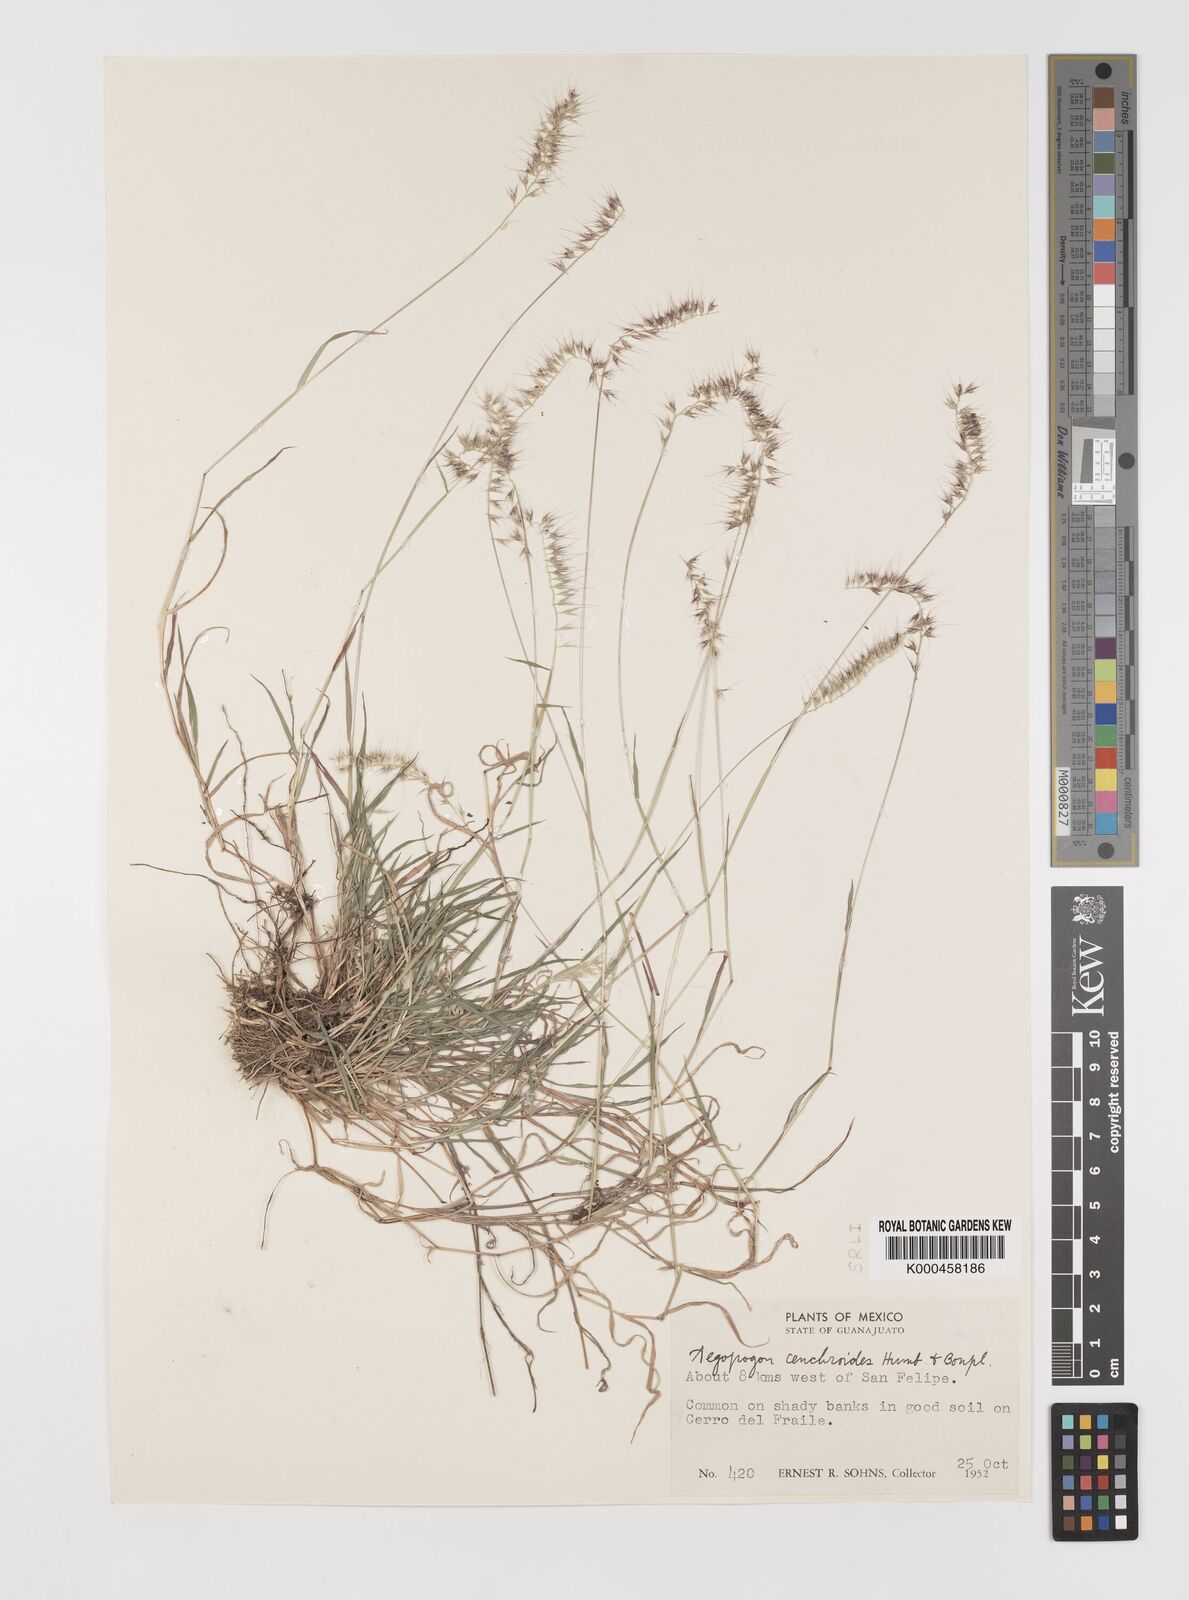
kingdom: Plantae
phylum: Tracheophyta
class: Liliopsida
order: Poales
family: Poaceae
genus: Muhlenbergia
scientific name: Muhlenbergia
